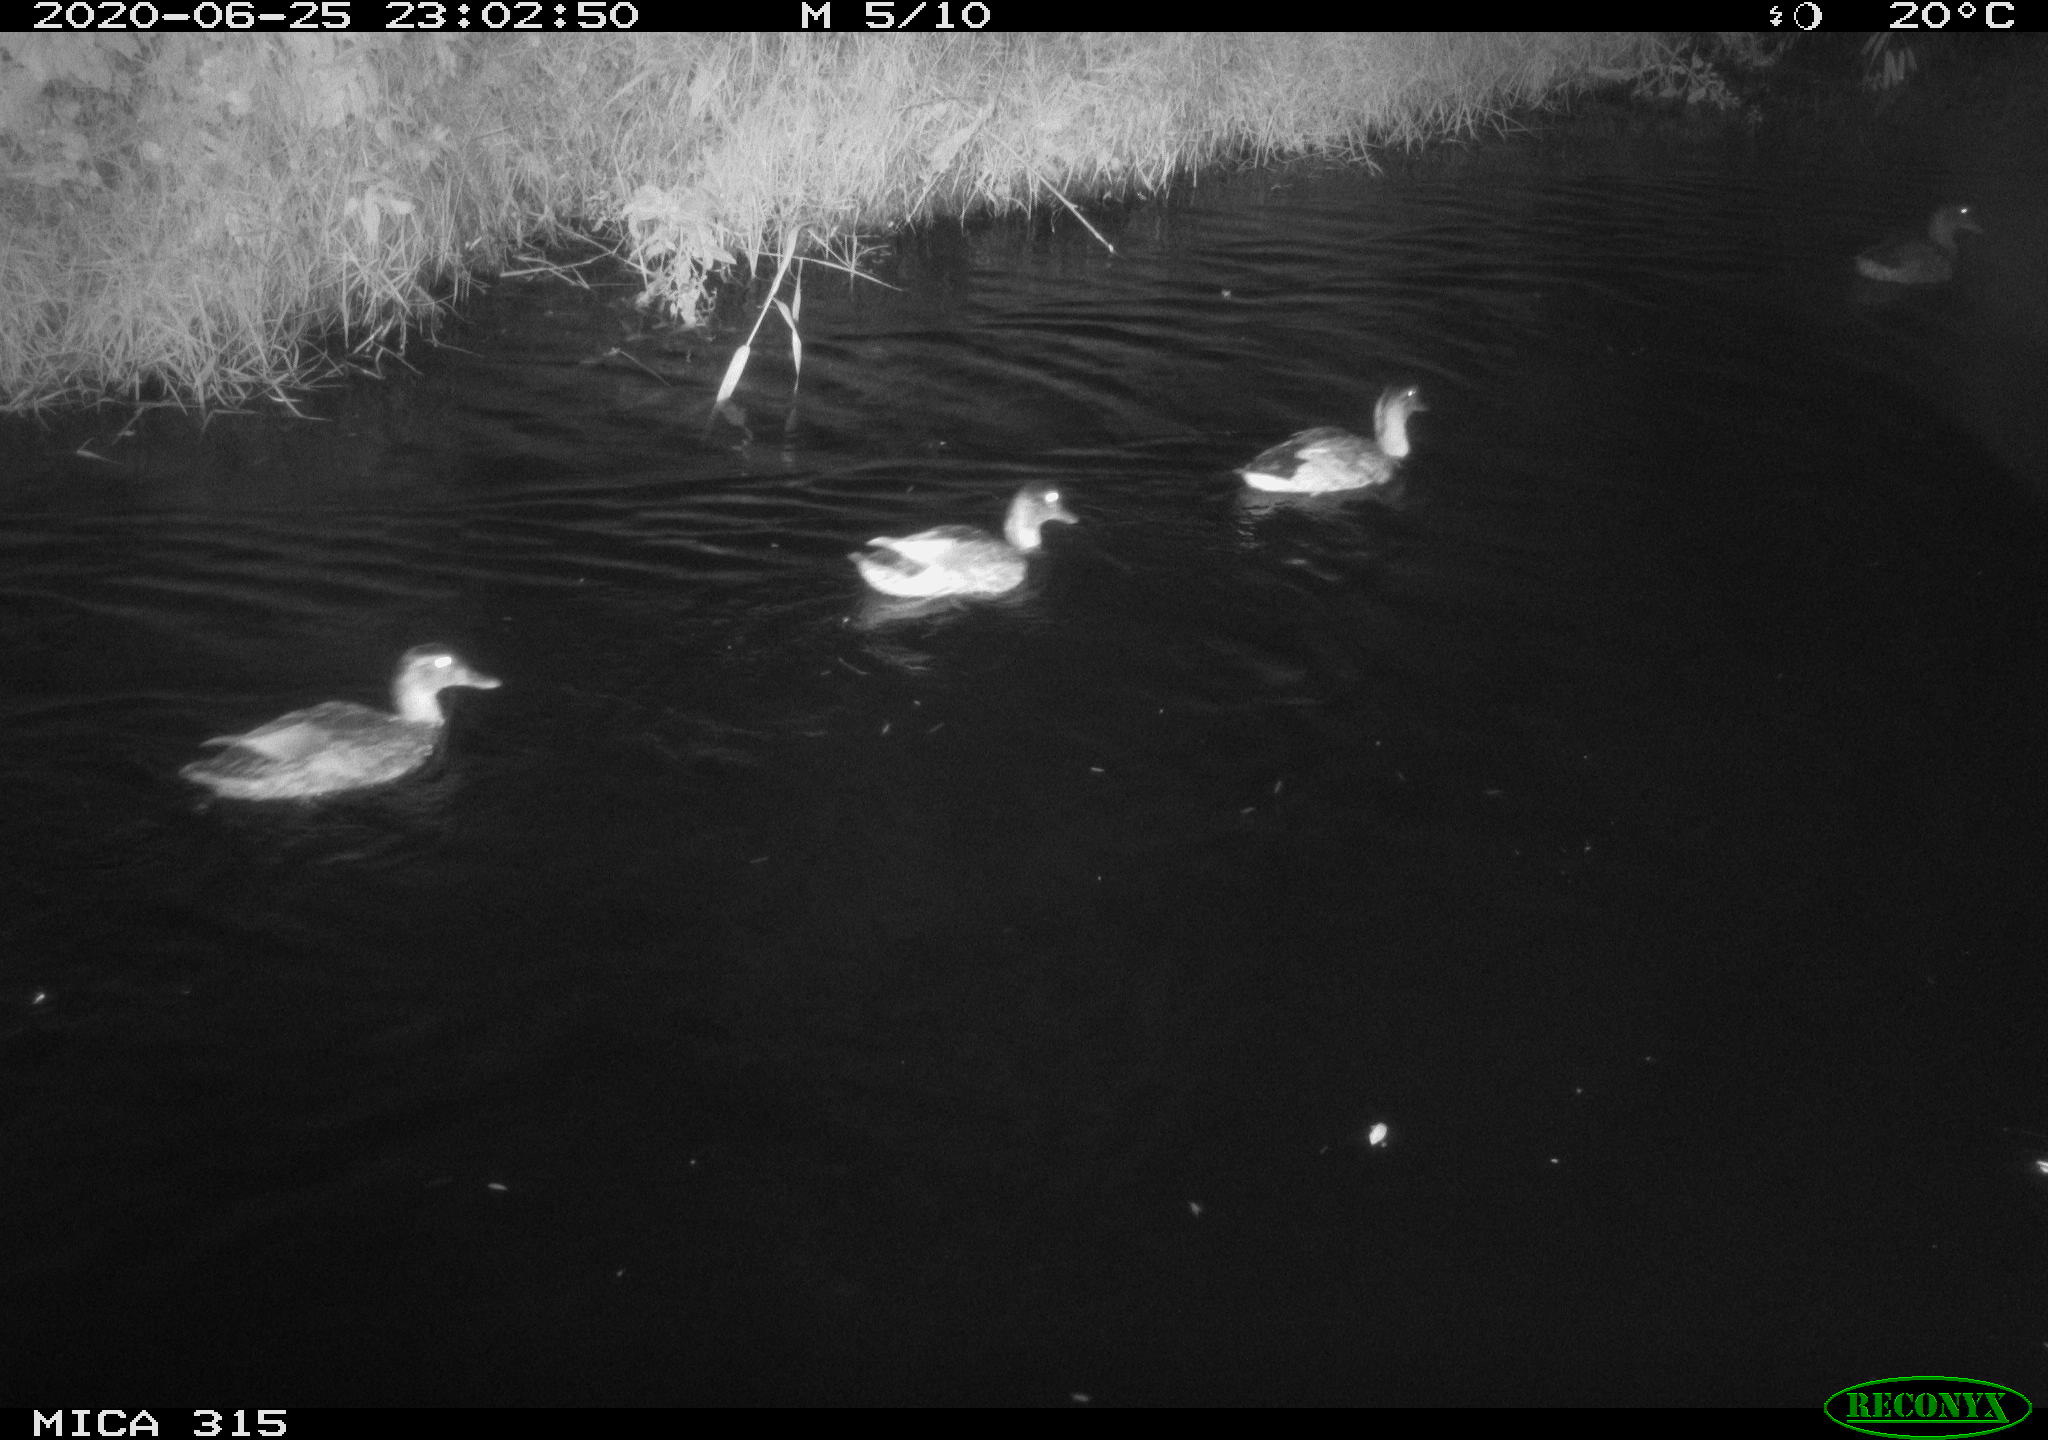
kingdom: Animalia
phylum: Chordata
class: Aves
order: Anseriformes
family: Anatidae
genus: Anas
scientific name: Anas platyrhynchos
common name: Mallard
